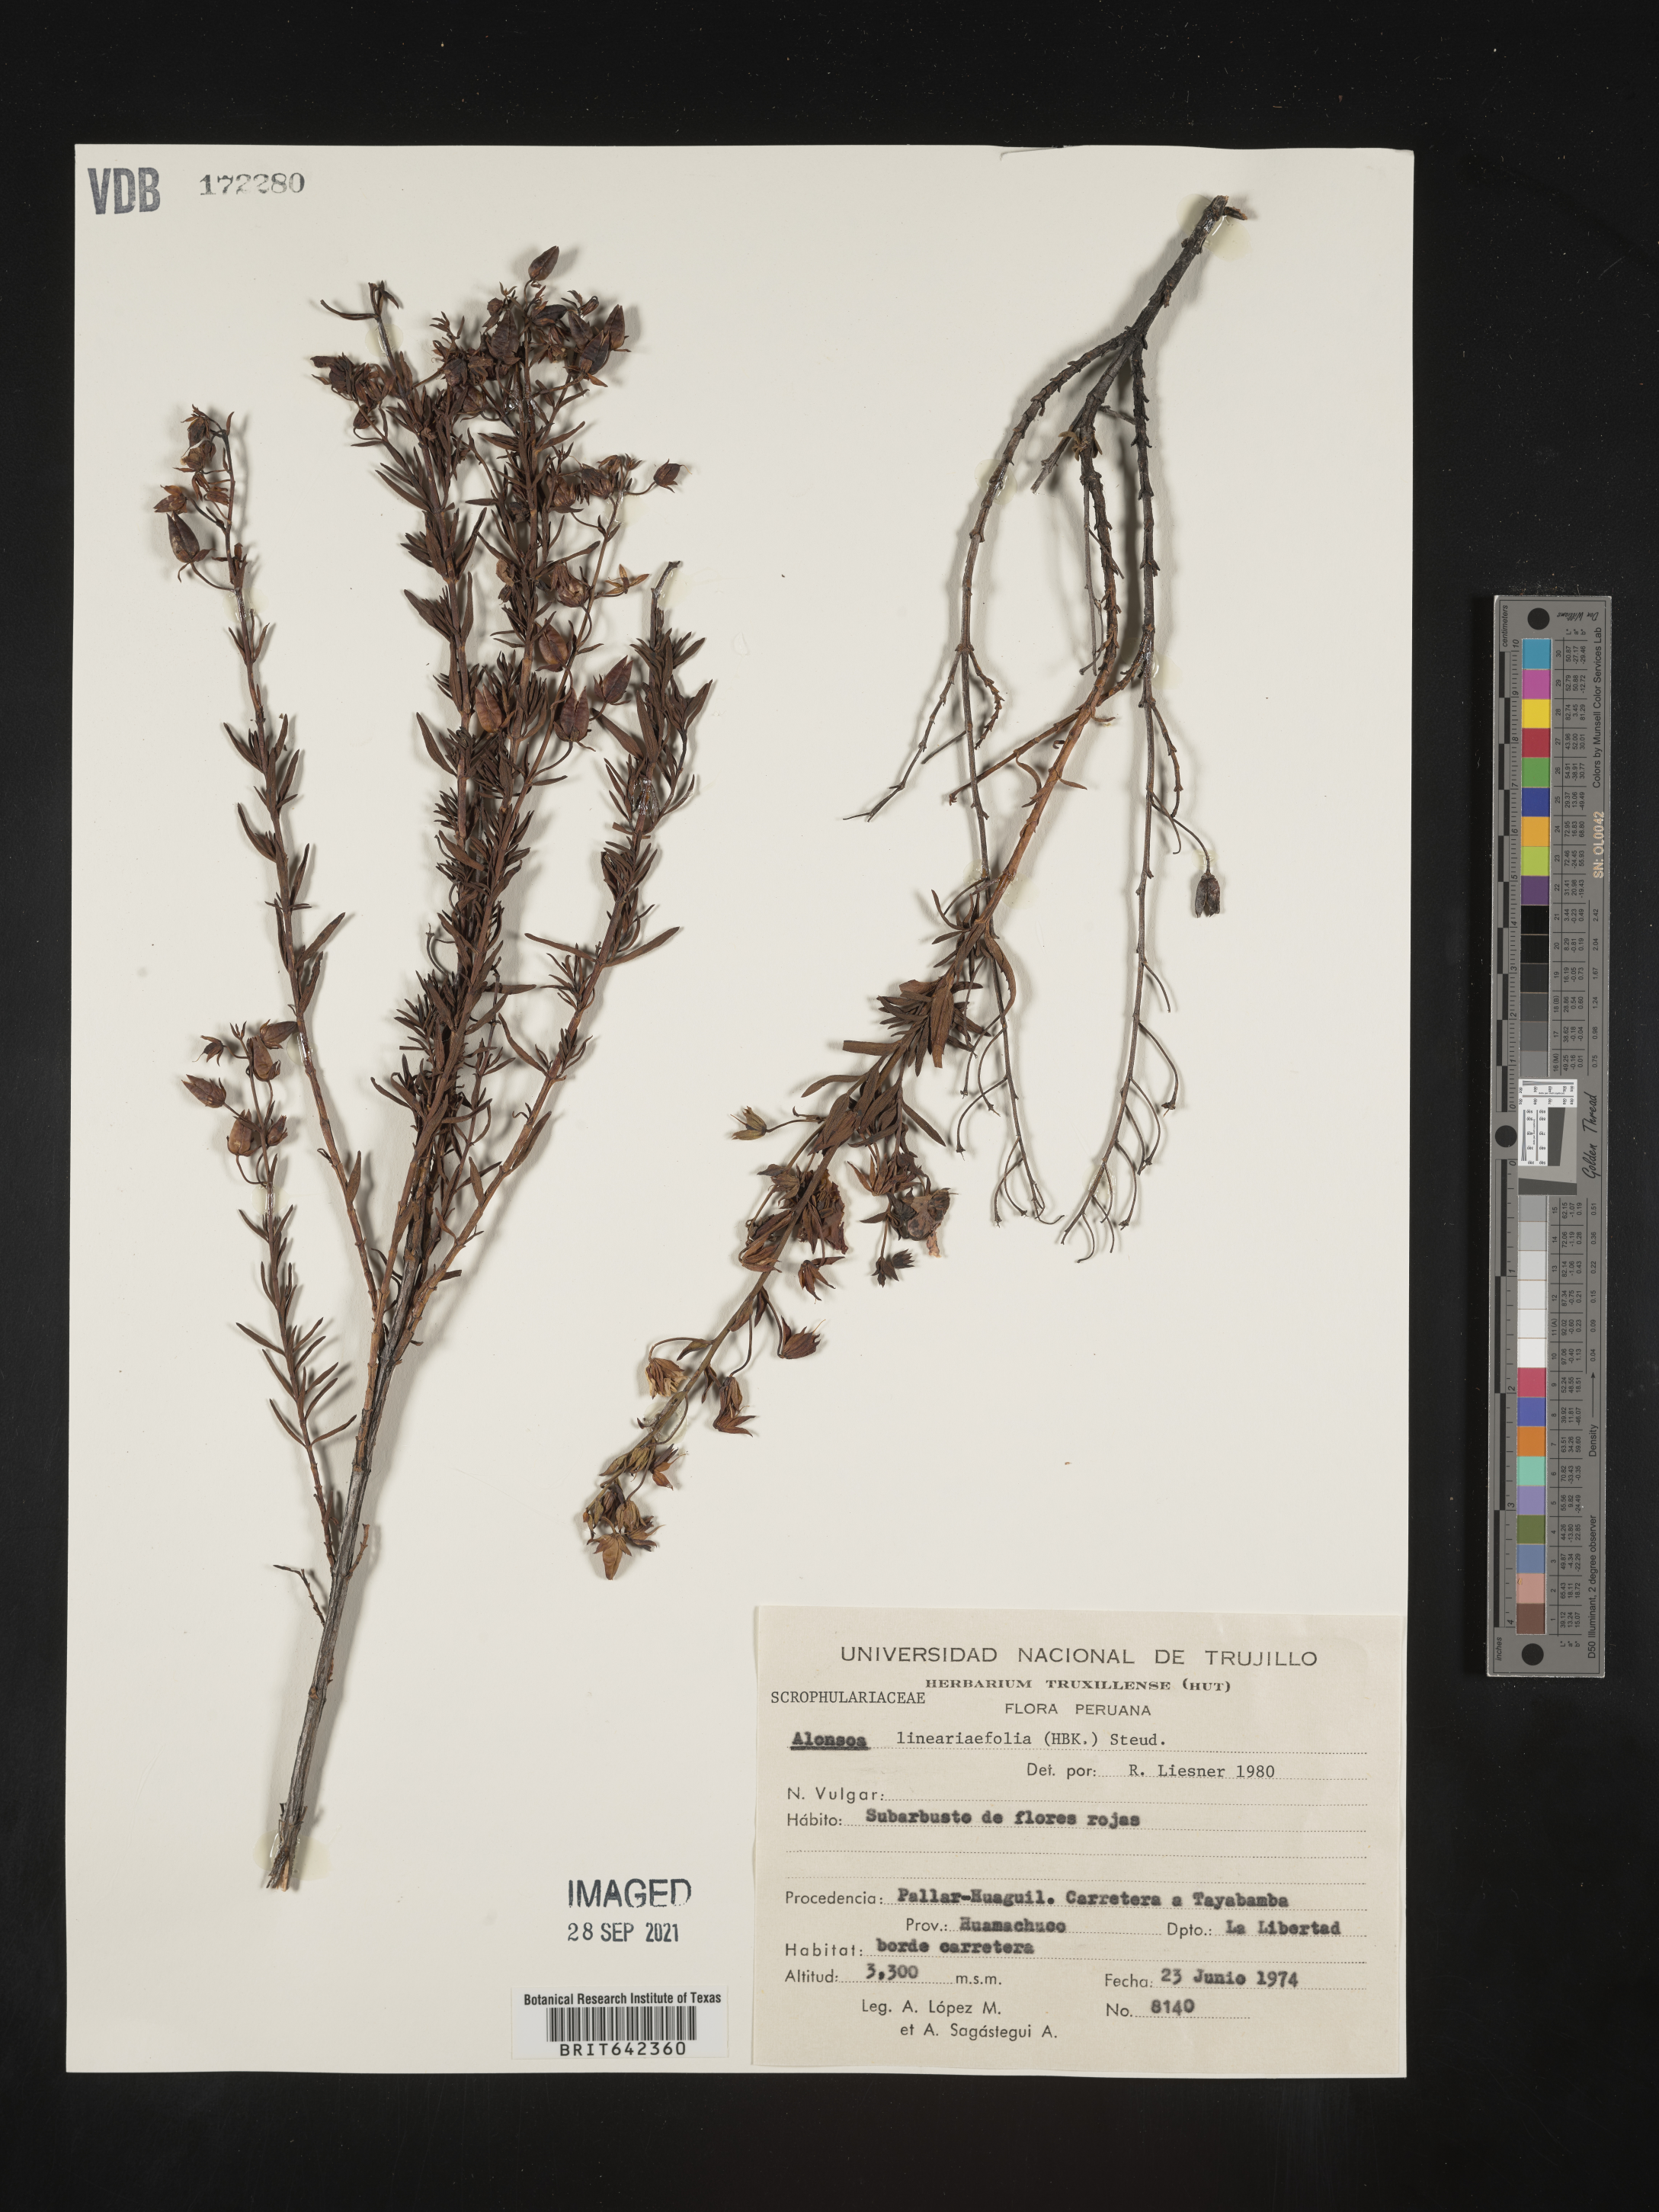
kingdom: Plantae
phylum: Tracheophyta
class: Magnoliopsida
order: Lamiales
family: Scrophulariaceae
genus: Alonsoa
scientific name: Alonsoa
